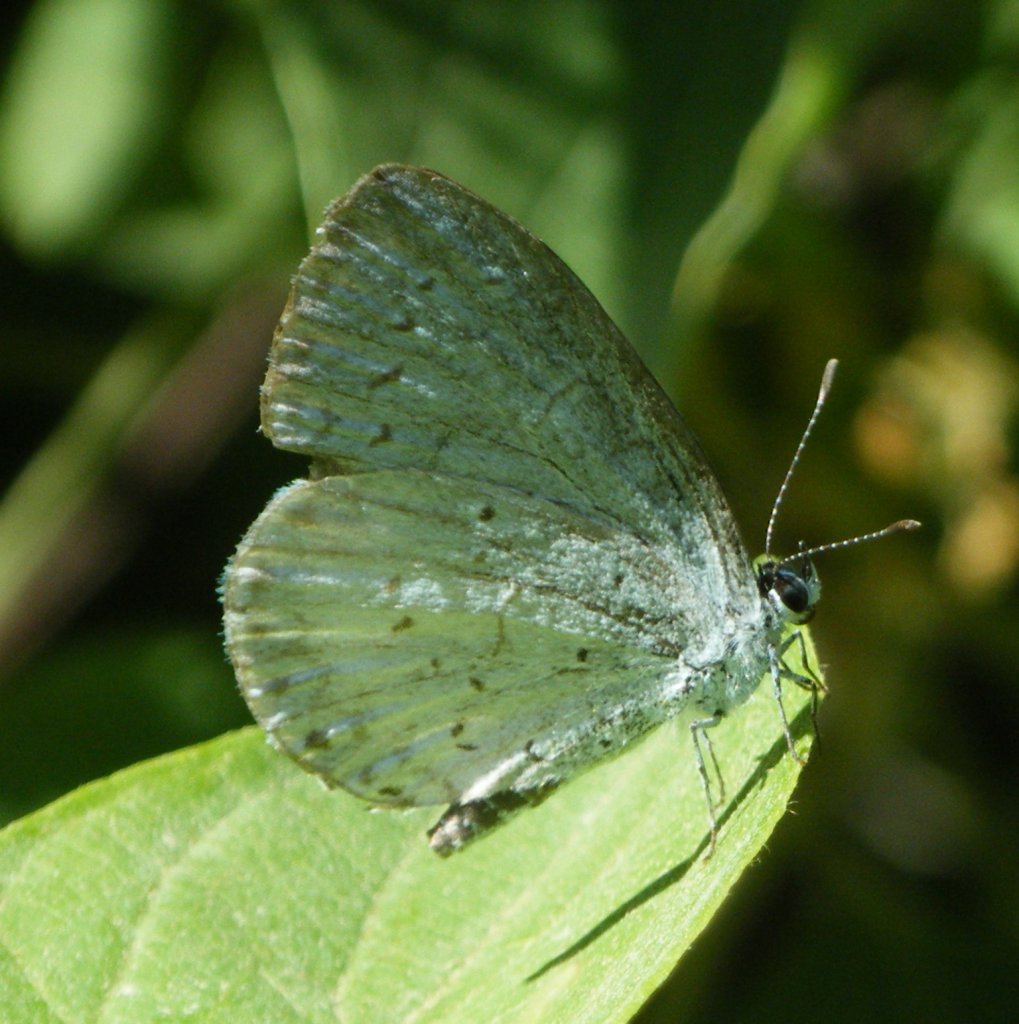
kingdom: Animalia
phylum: Arthropoda
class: Insecta
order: Lepidoptera
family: Lycaenidae
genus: Celastrina
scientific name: Celastrina
